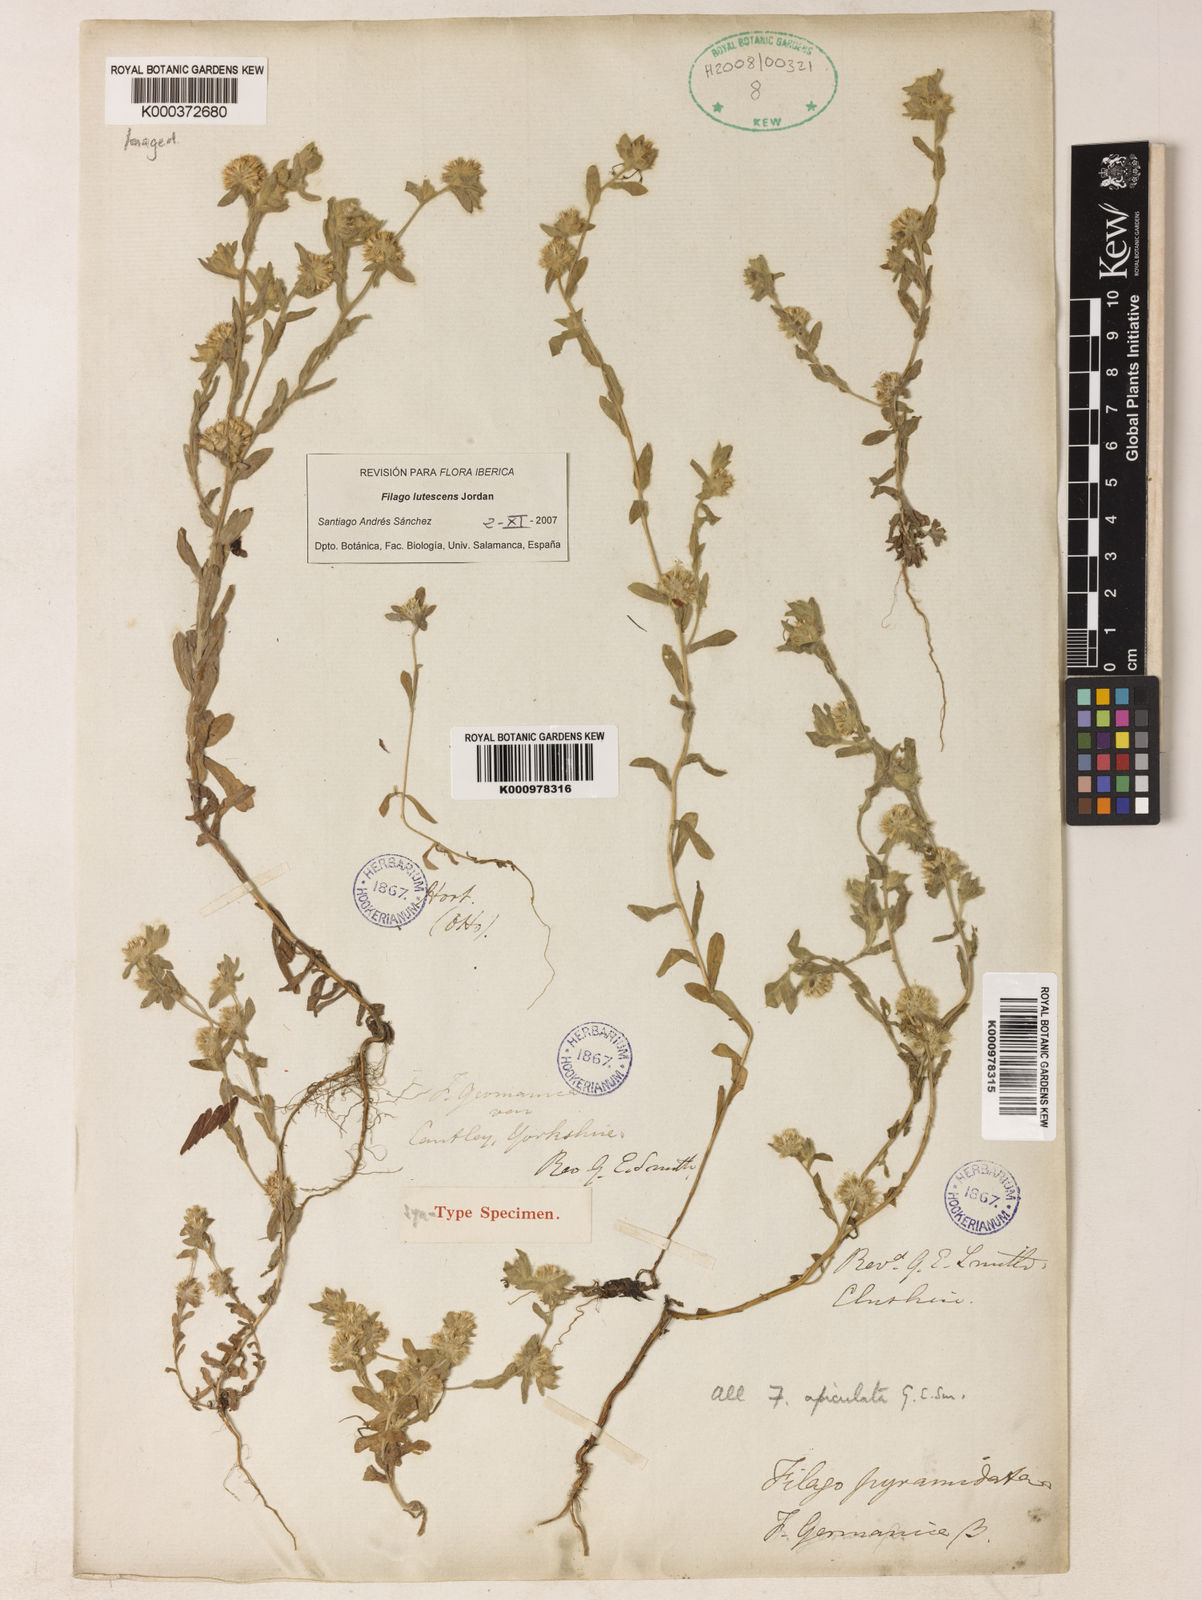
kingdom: Plantae
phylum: Tracheophyta
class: Magnoliopsida
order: Asterales
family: Asteraceae
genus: Filago
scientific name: Filago lutescens
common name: Red-tipped cudweed
